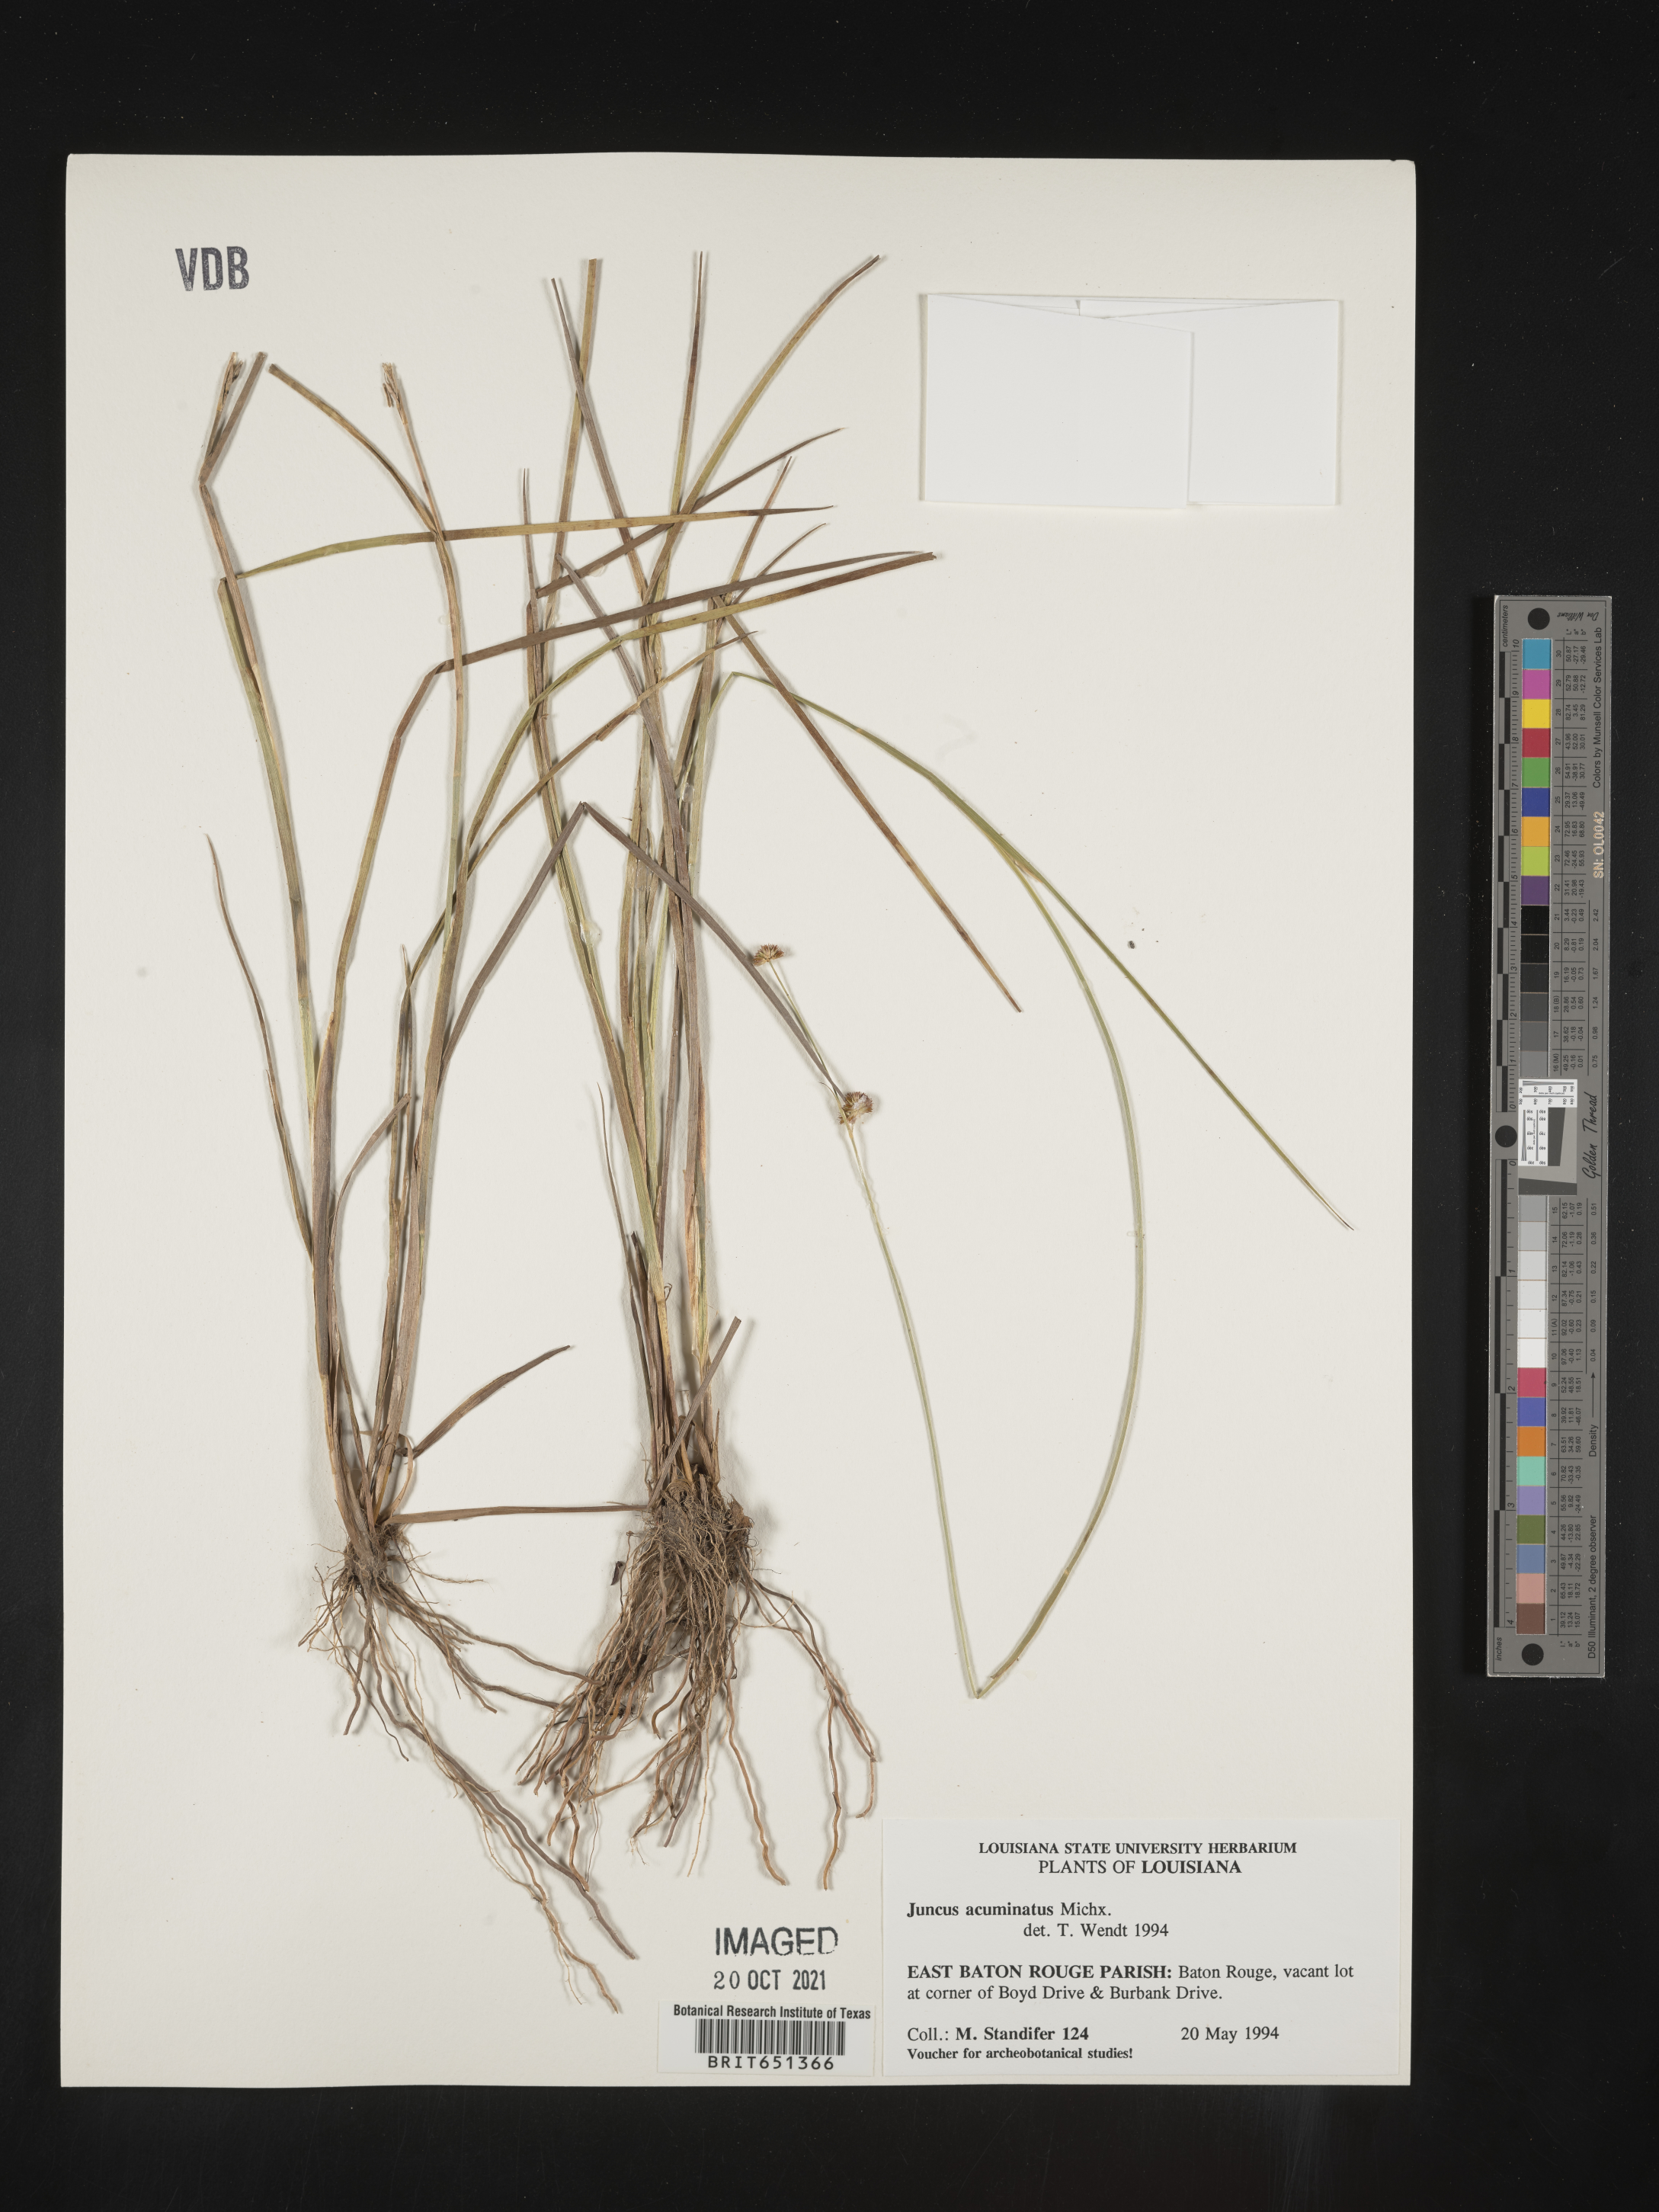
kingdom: Plantae
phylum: Tracheophyta
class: Liliopsida
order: Poales
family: Juncaceae
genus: Juncus
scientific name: Juncus acuminatus
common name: Knotty-leaved rush
